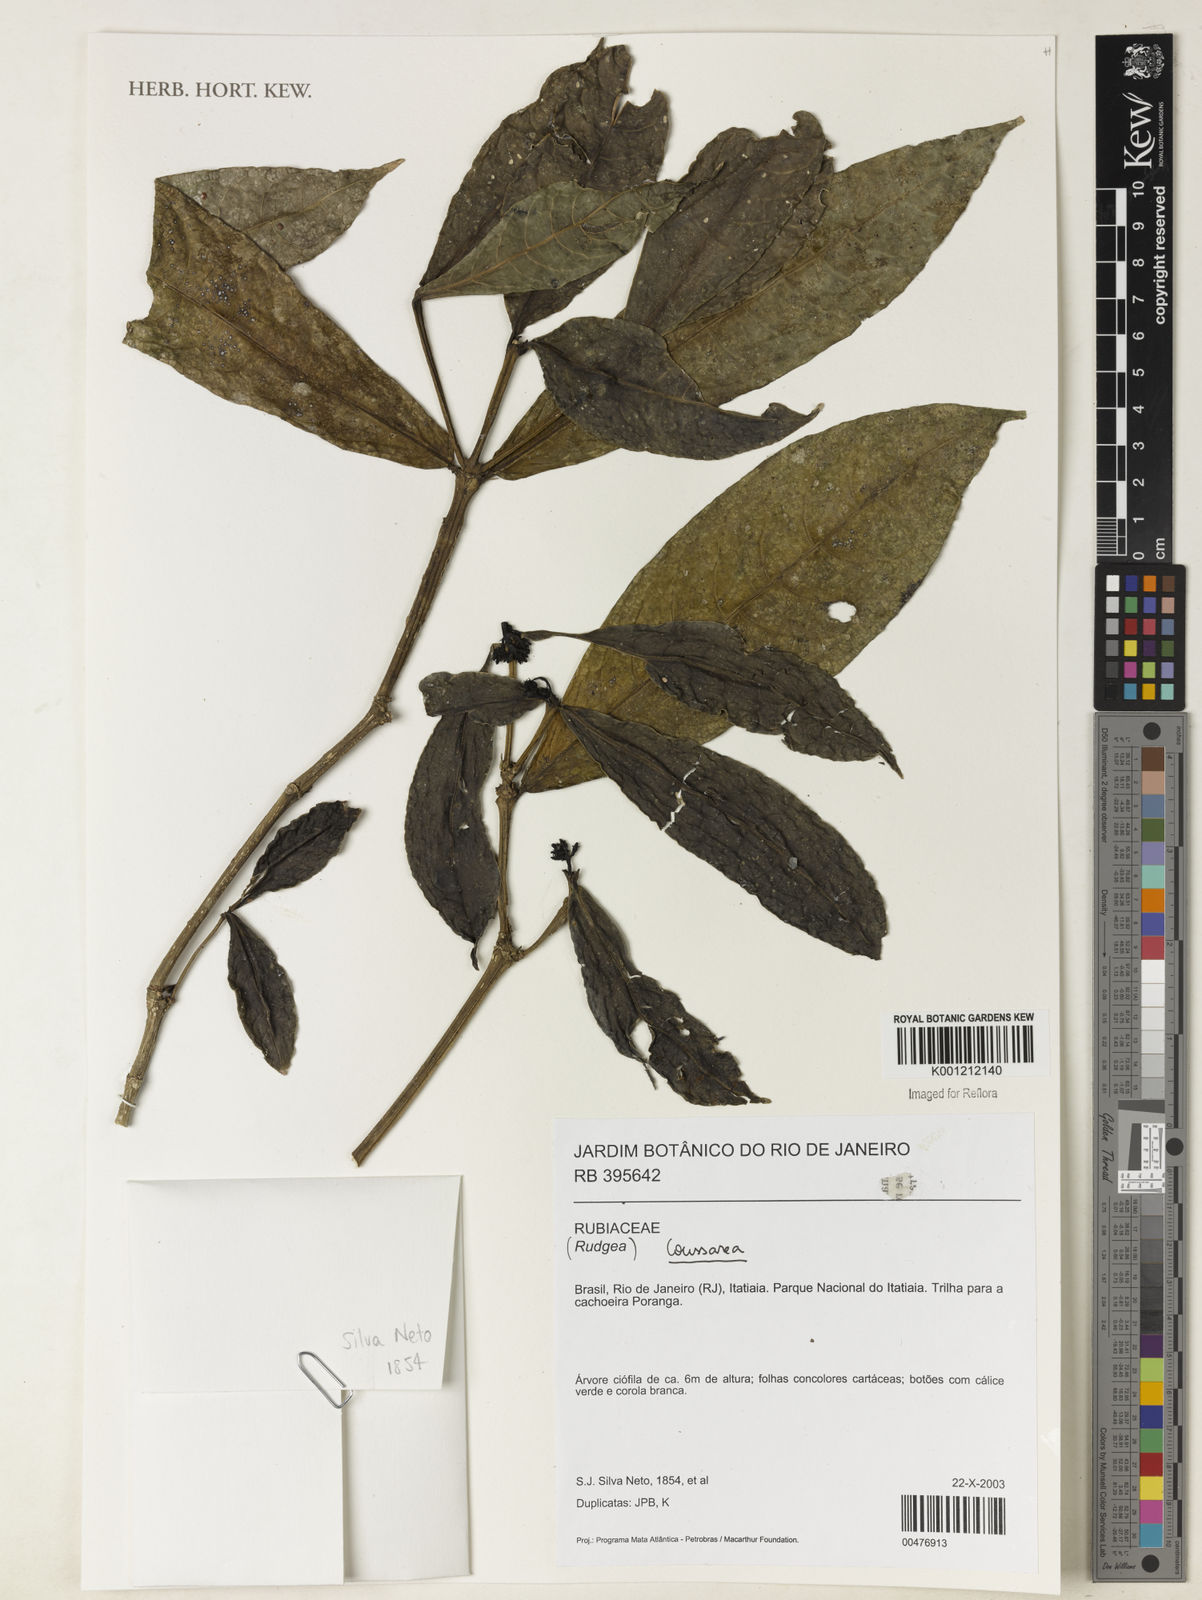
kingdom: Plantae
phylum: Tracheophyta
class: Magnoliopsida
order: Gentianales
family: Rubiaceae
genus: Rudgea
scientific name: Rudgea
